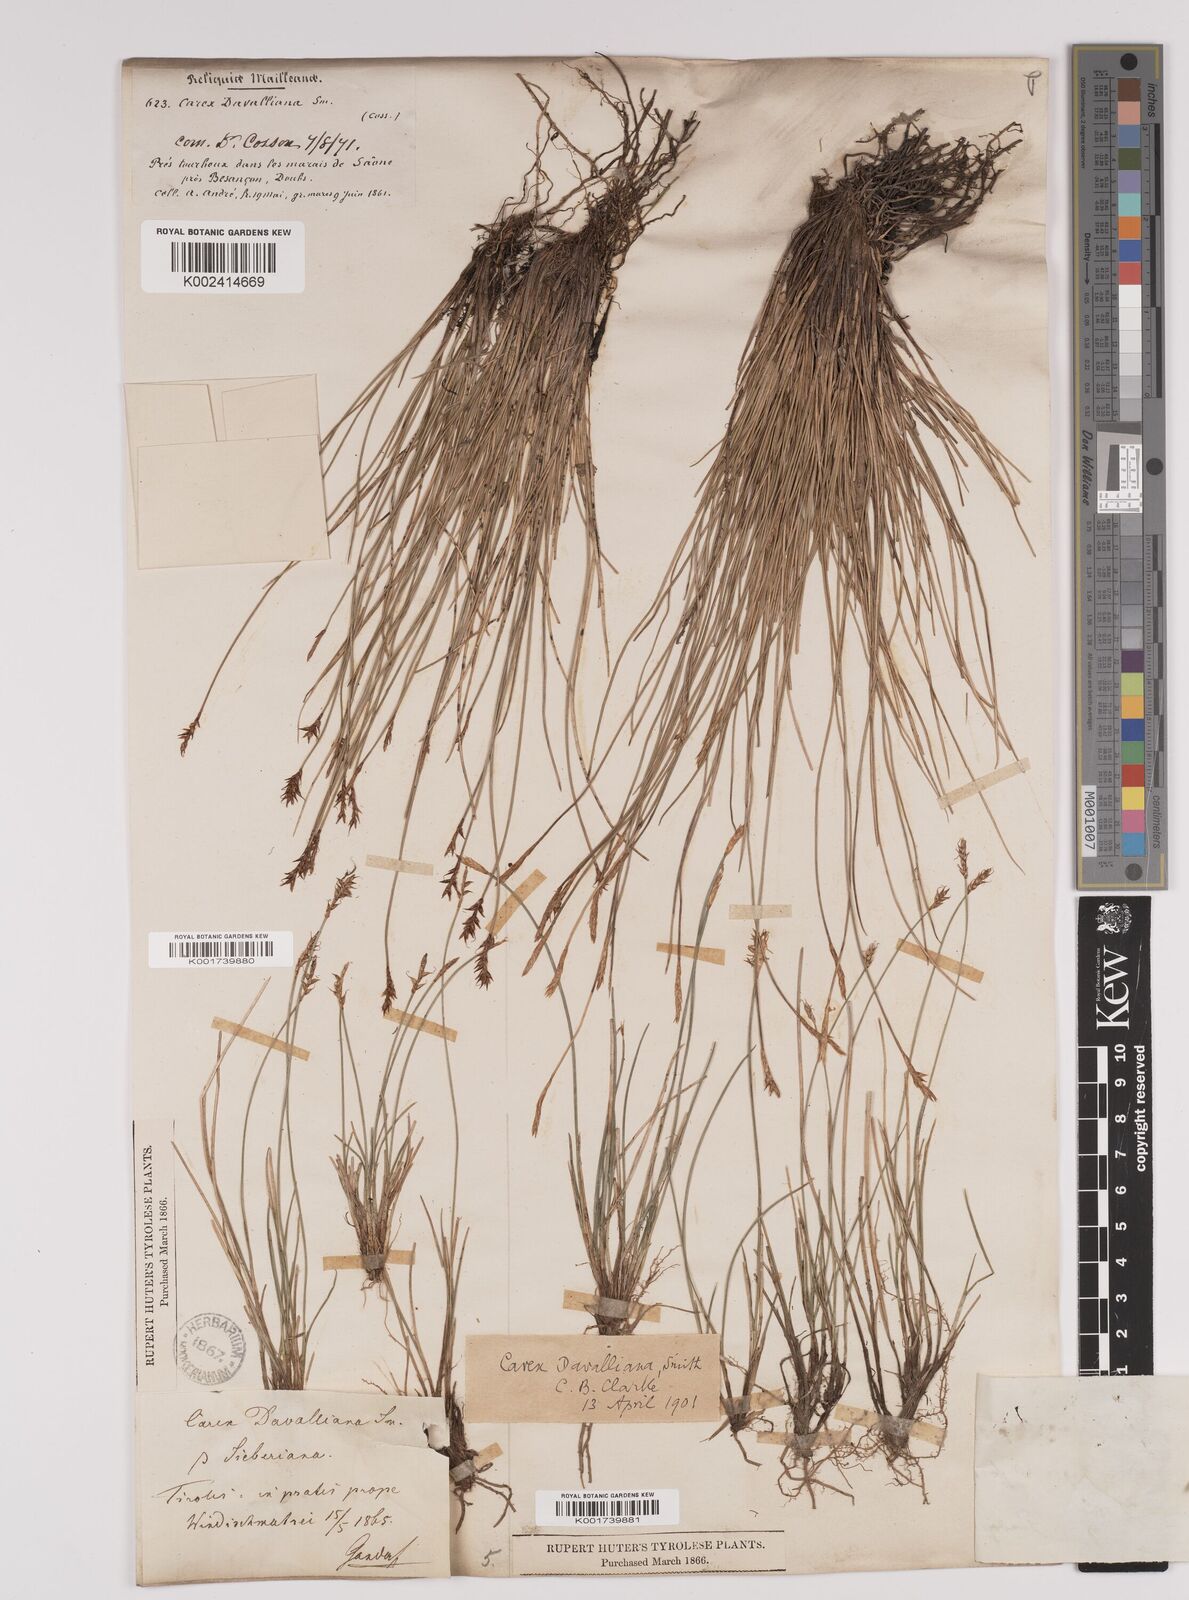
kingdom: Plantae
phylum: Tracheophyta
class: Liliopsida
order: Poales
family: Cyperaceae
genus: Carex
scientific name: Carex davalliana
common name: Davall's sedge
